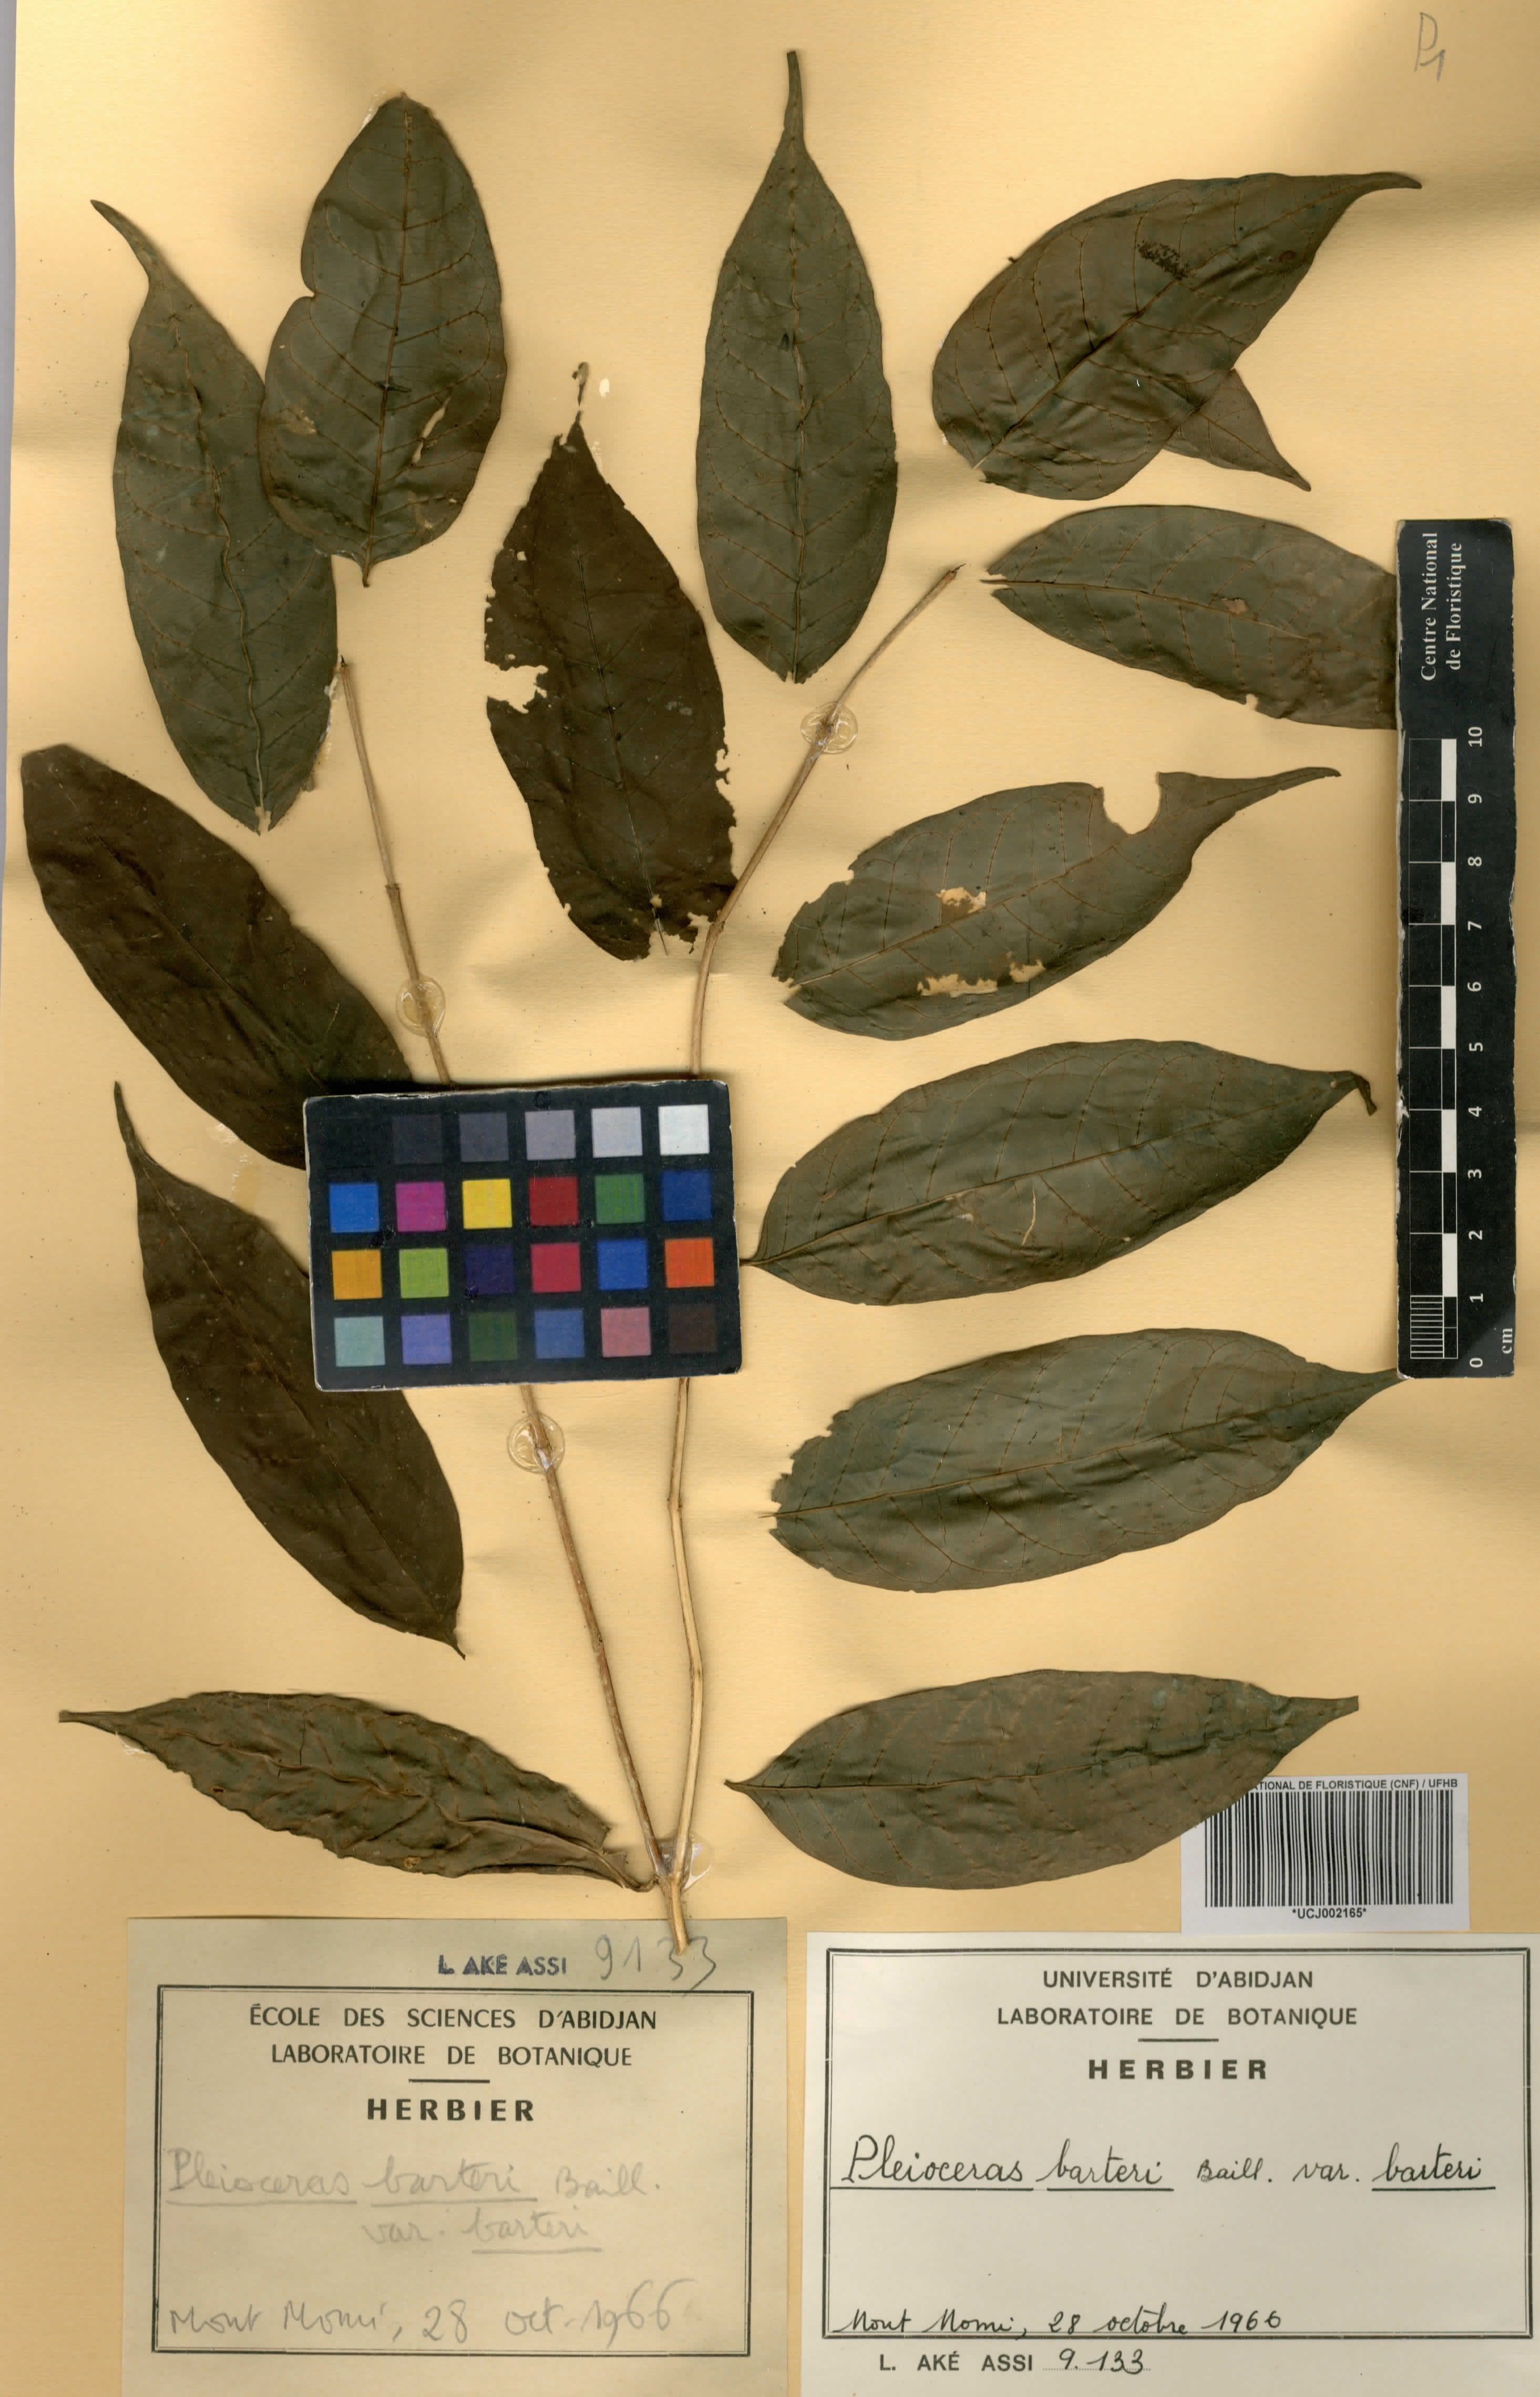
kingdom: Plantae
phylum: Tracheophyta
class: Magnoliopsida
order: Gentianales
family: Apocynaceae
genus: Pleioceras
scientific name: Pleioceras barteri
